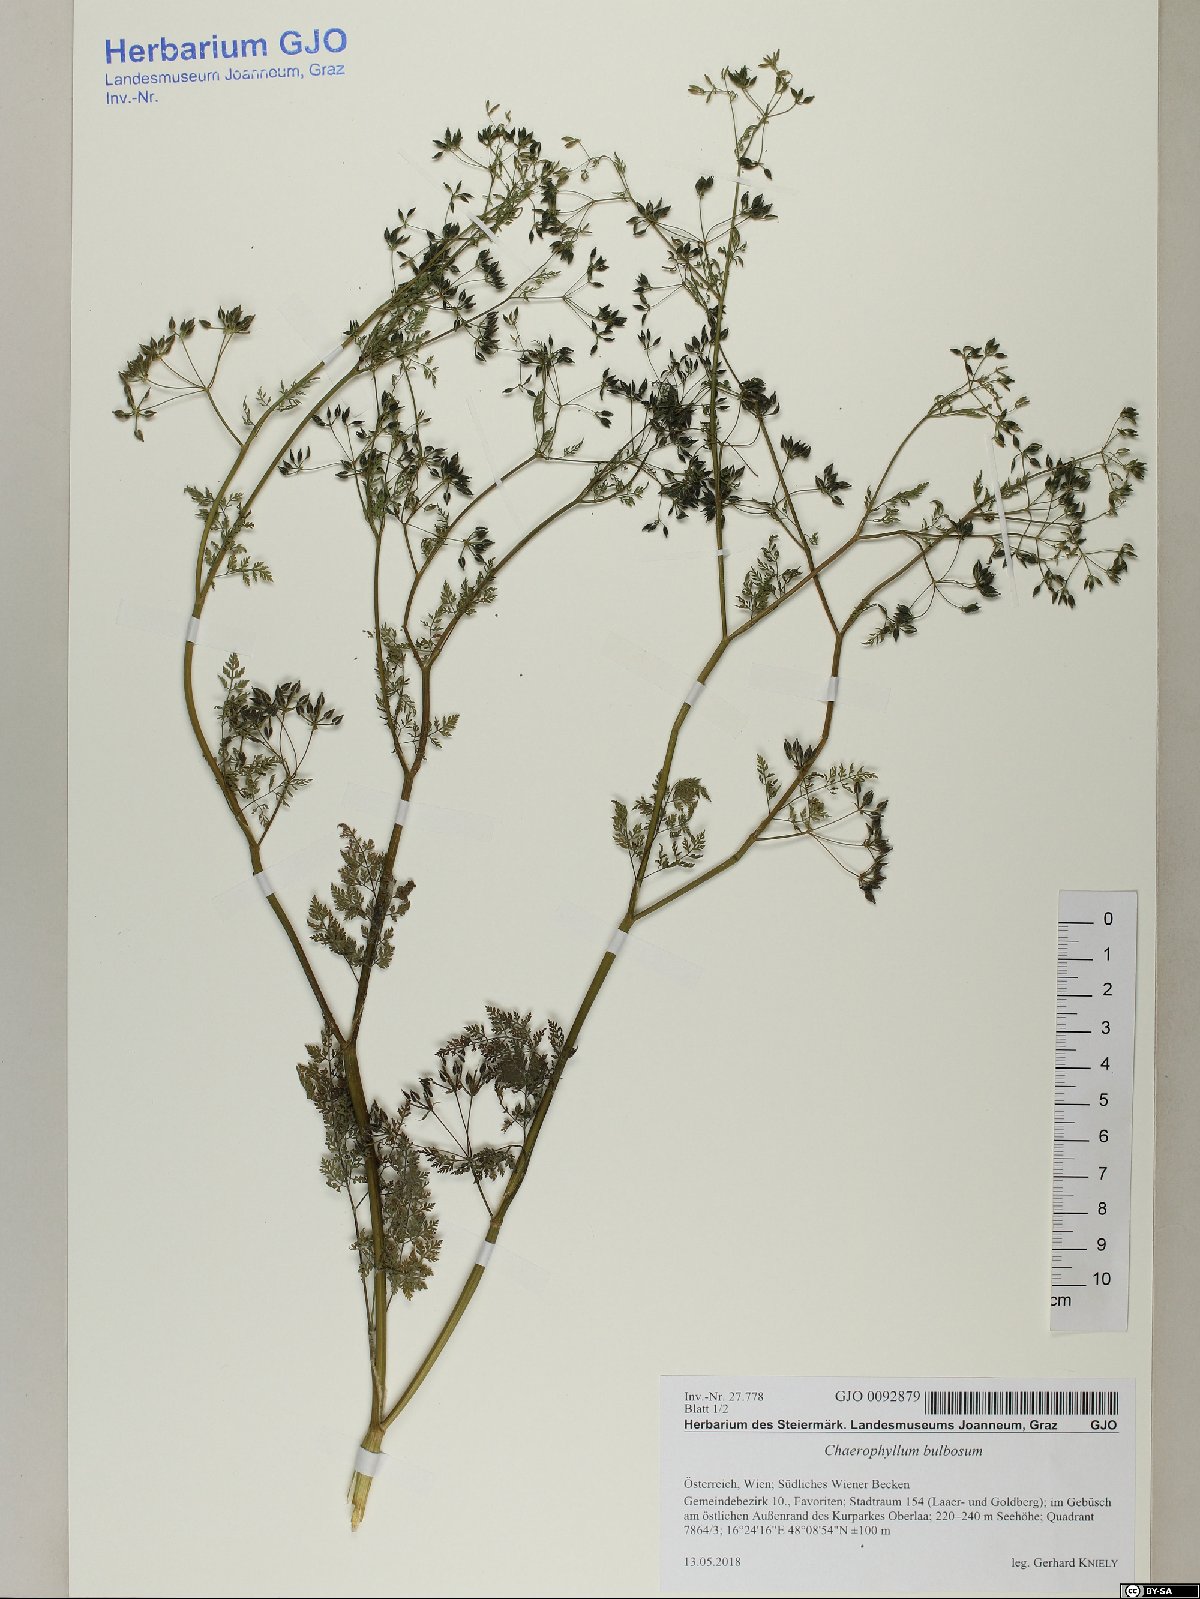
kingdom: Plantae
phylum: Tracheophyta
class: Magnoliopsida
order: Apiales
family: Apiaceae
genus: Chaerophyllum
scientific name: Chaerophyllum bulbosum
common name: Bulbous chervil
